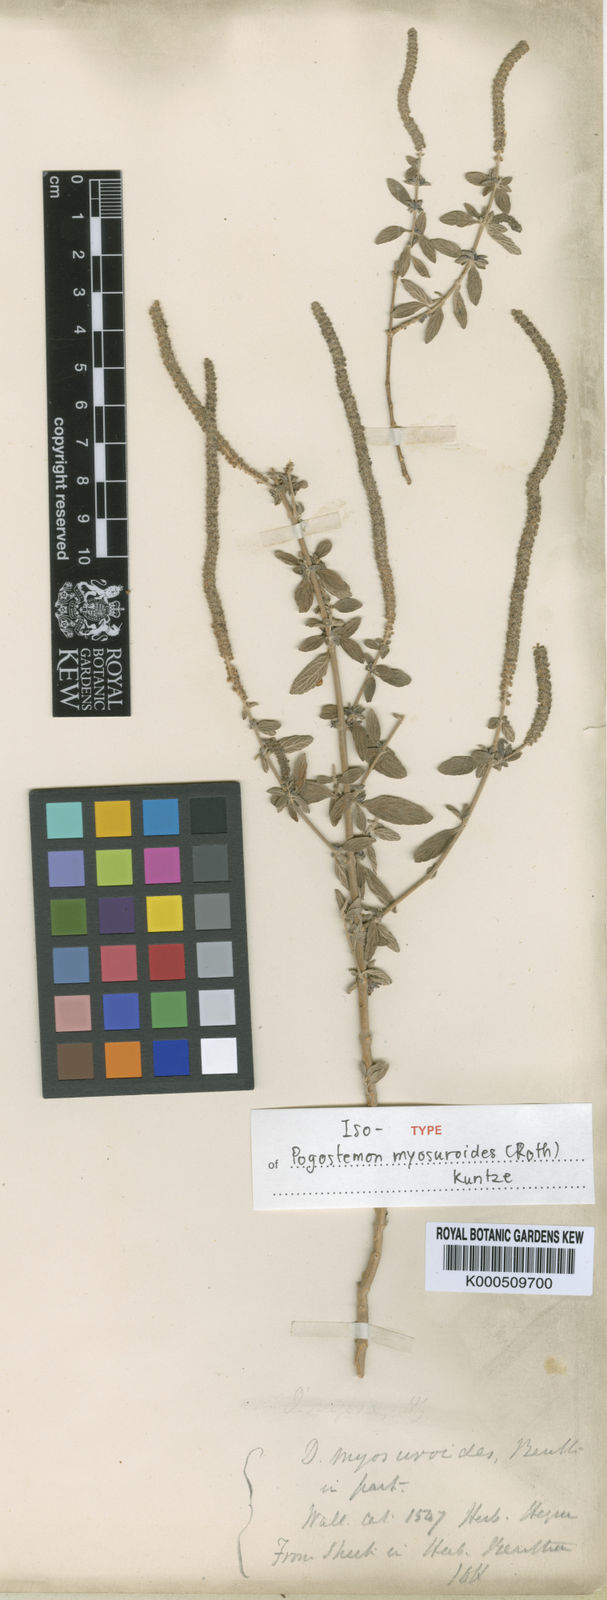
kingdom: Plantae
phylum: Tracheophyta
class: Magnoliopsida
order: Lamiales
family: Lamiaceae
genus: Pogostemon
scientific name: Pogostemon myosuroides
